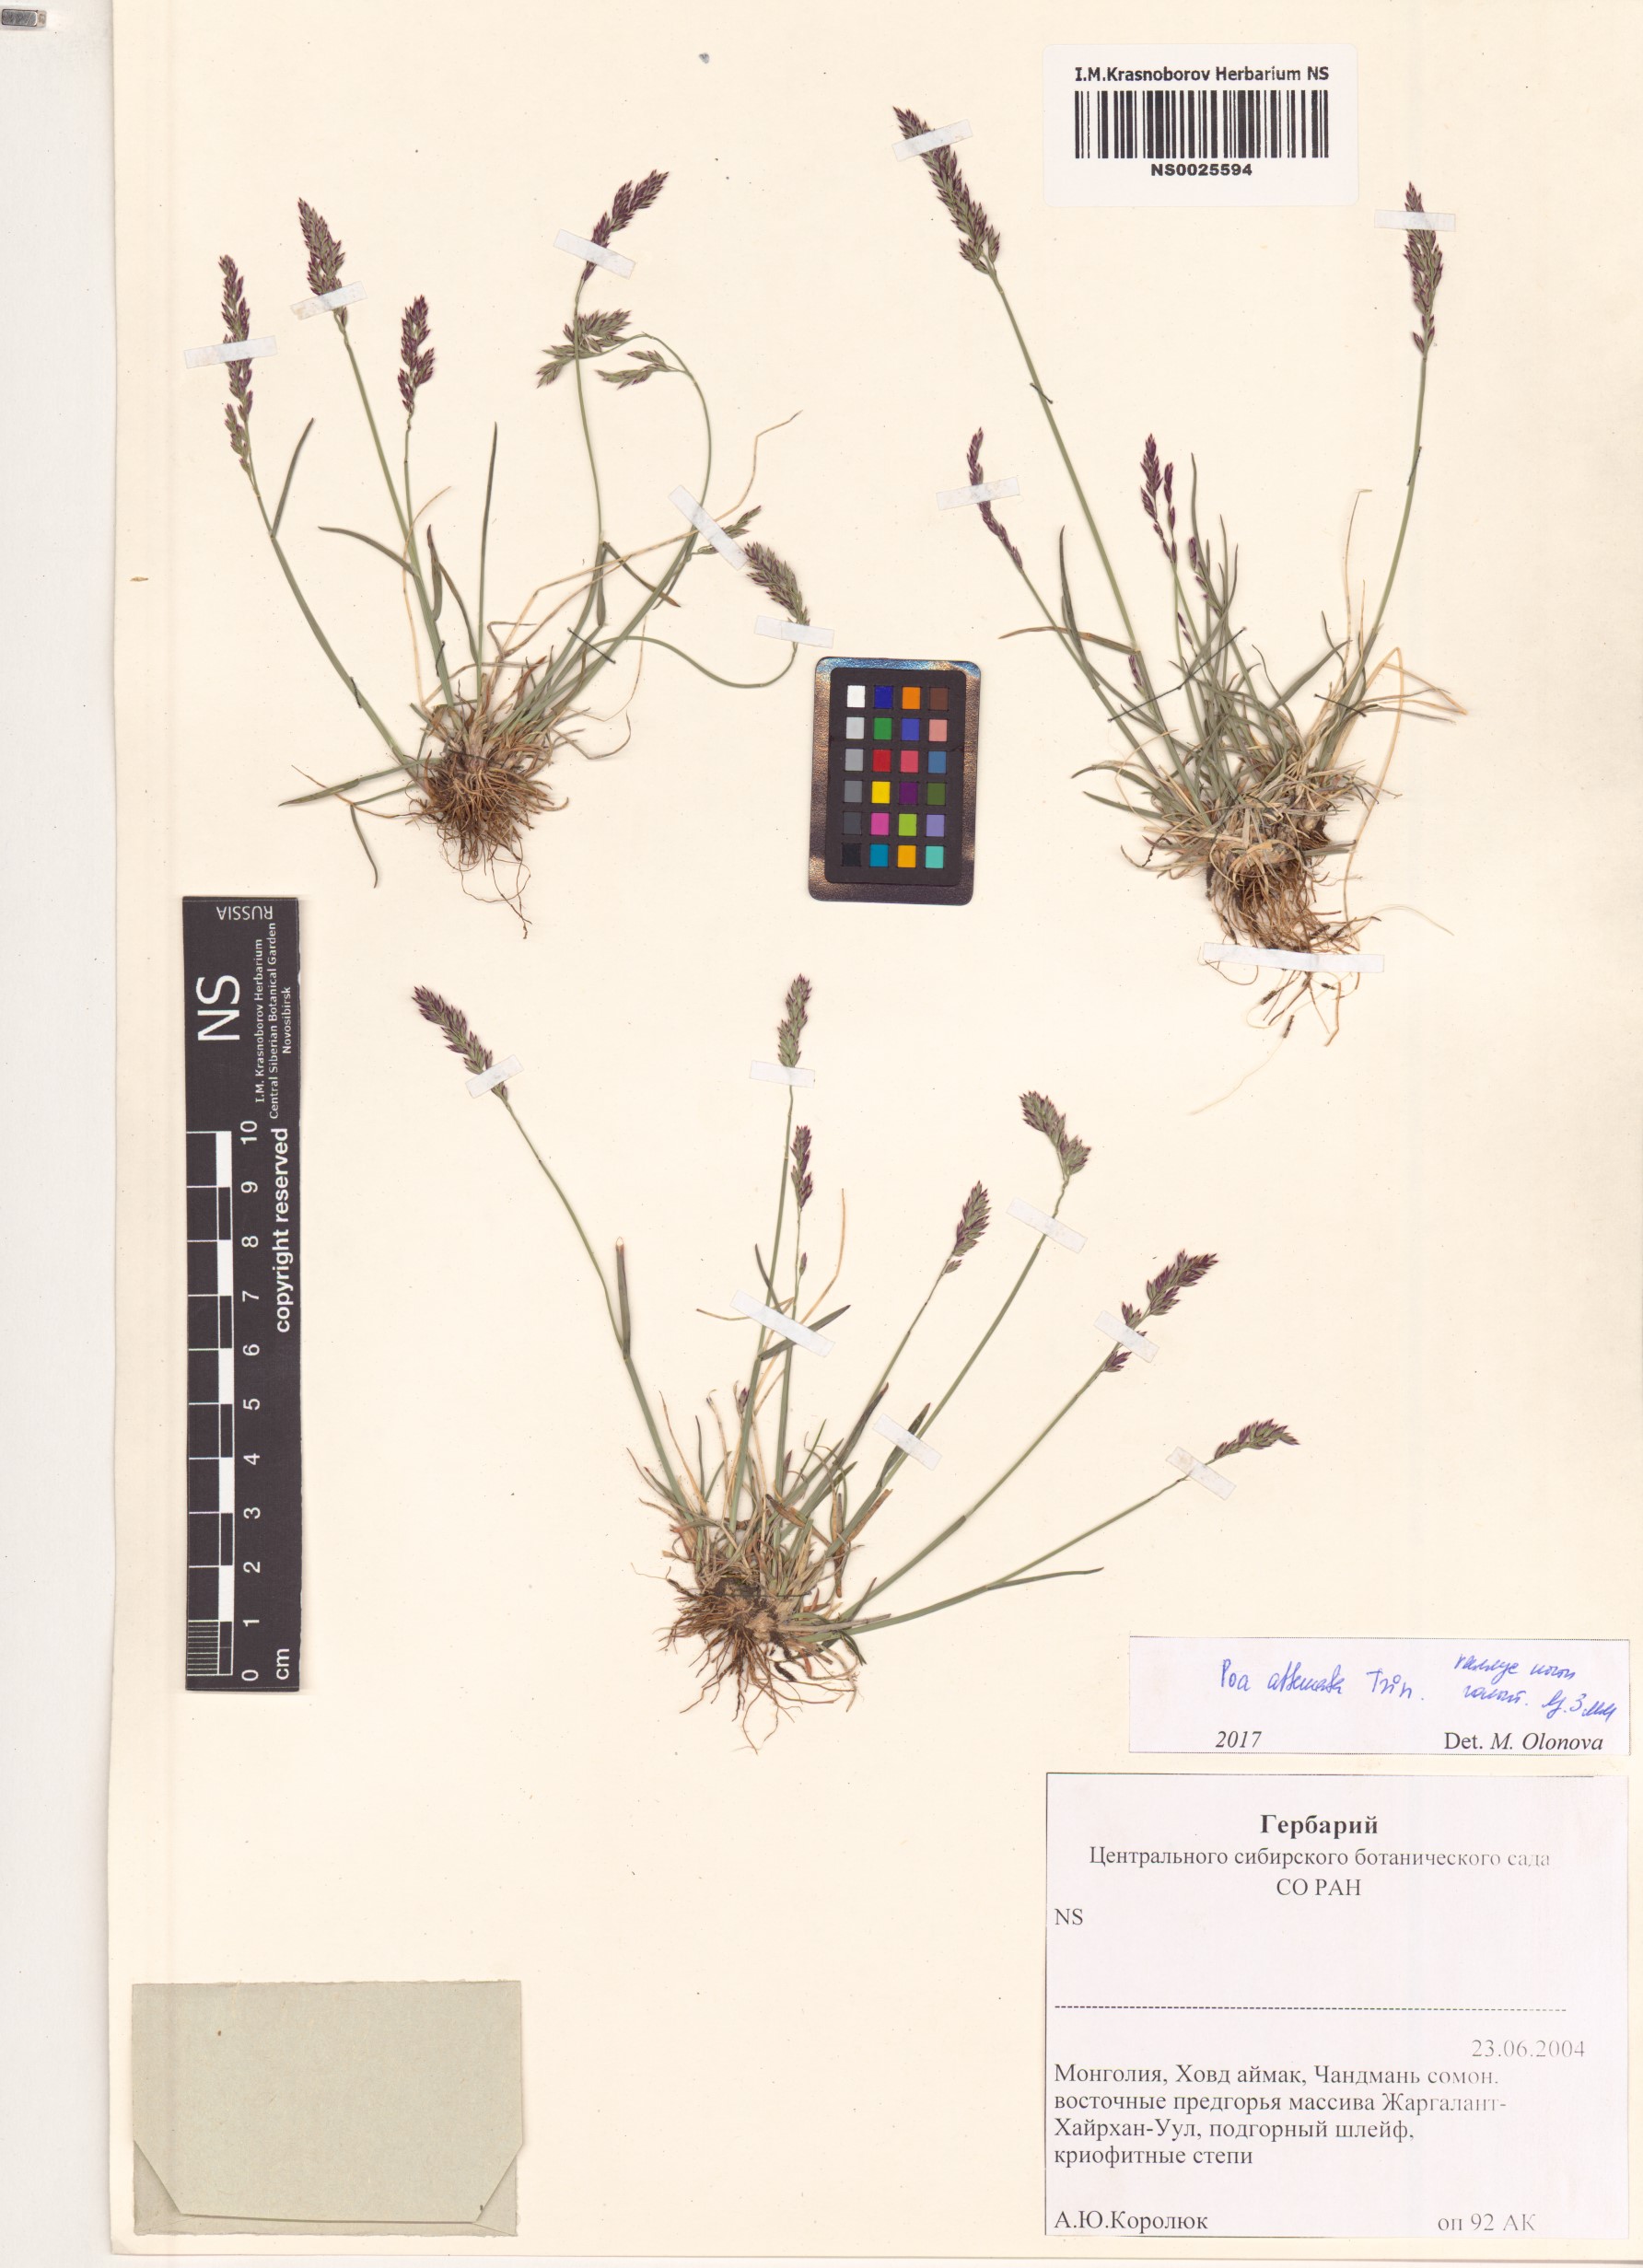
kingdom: Plantae
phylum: Tracheophyta
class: Liliopsida
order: Poales
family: Poaceae
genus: Poa
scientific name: Poa attenuata
